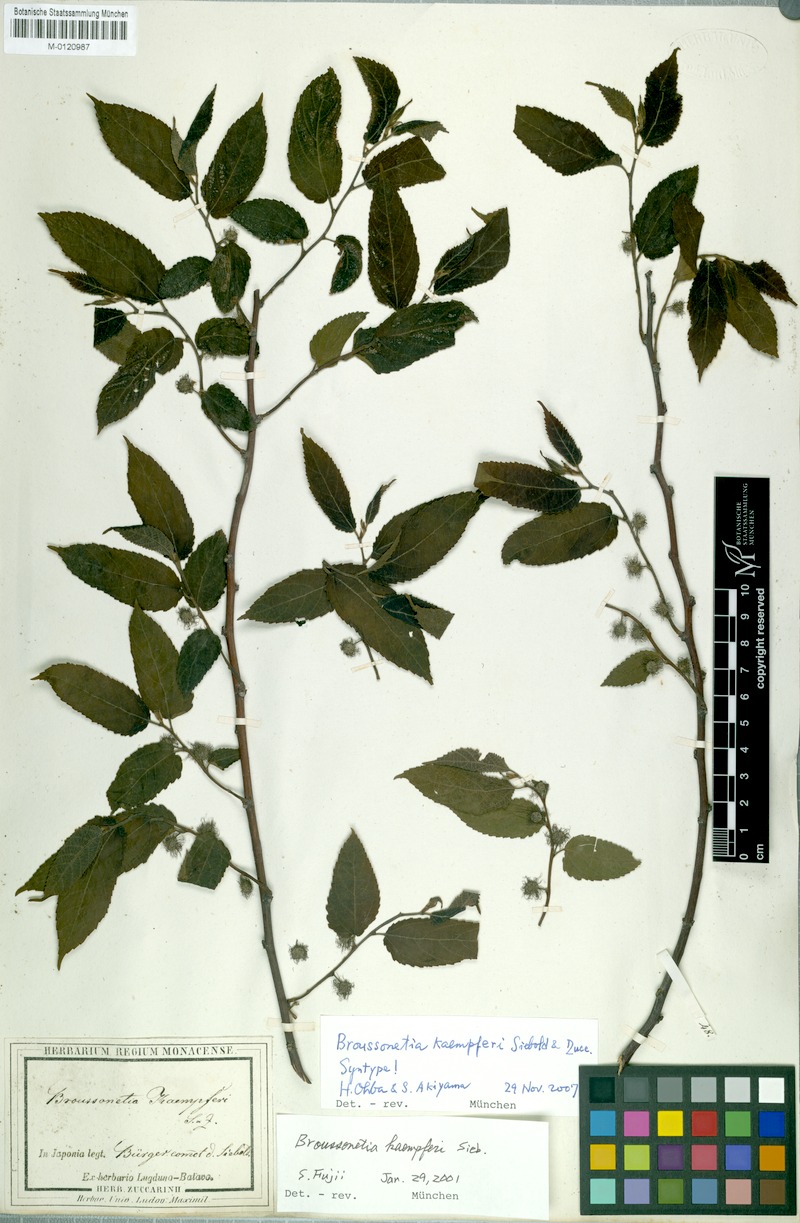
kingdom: Plantae
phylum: Tracheophyta
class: Magnoliopsida
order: Rosales
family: Moraceae
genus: Broussonetia
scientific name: Broussonetia kaempferi
